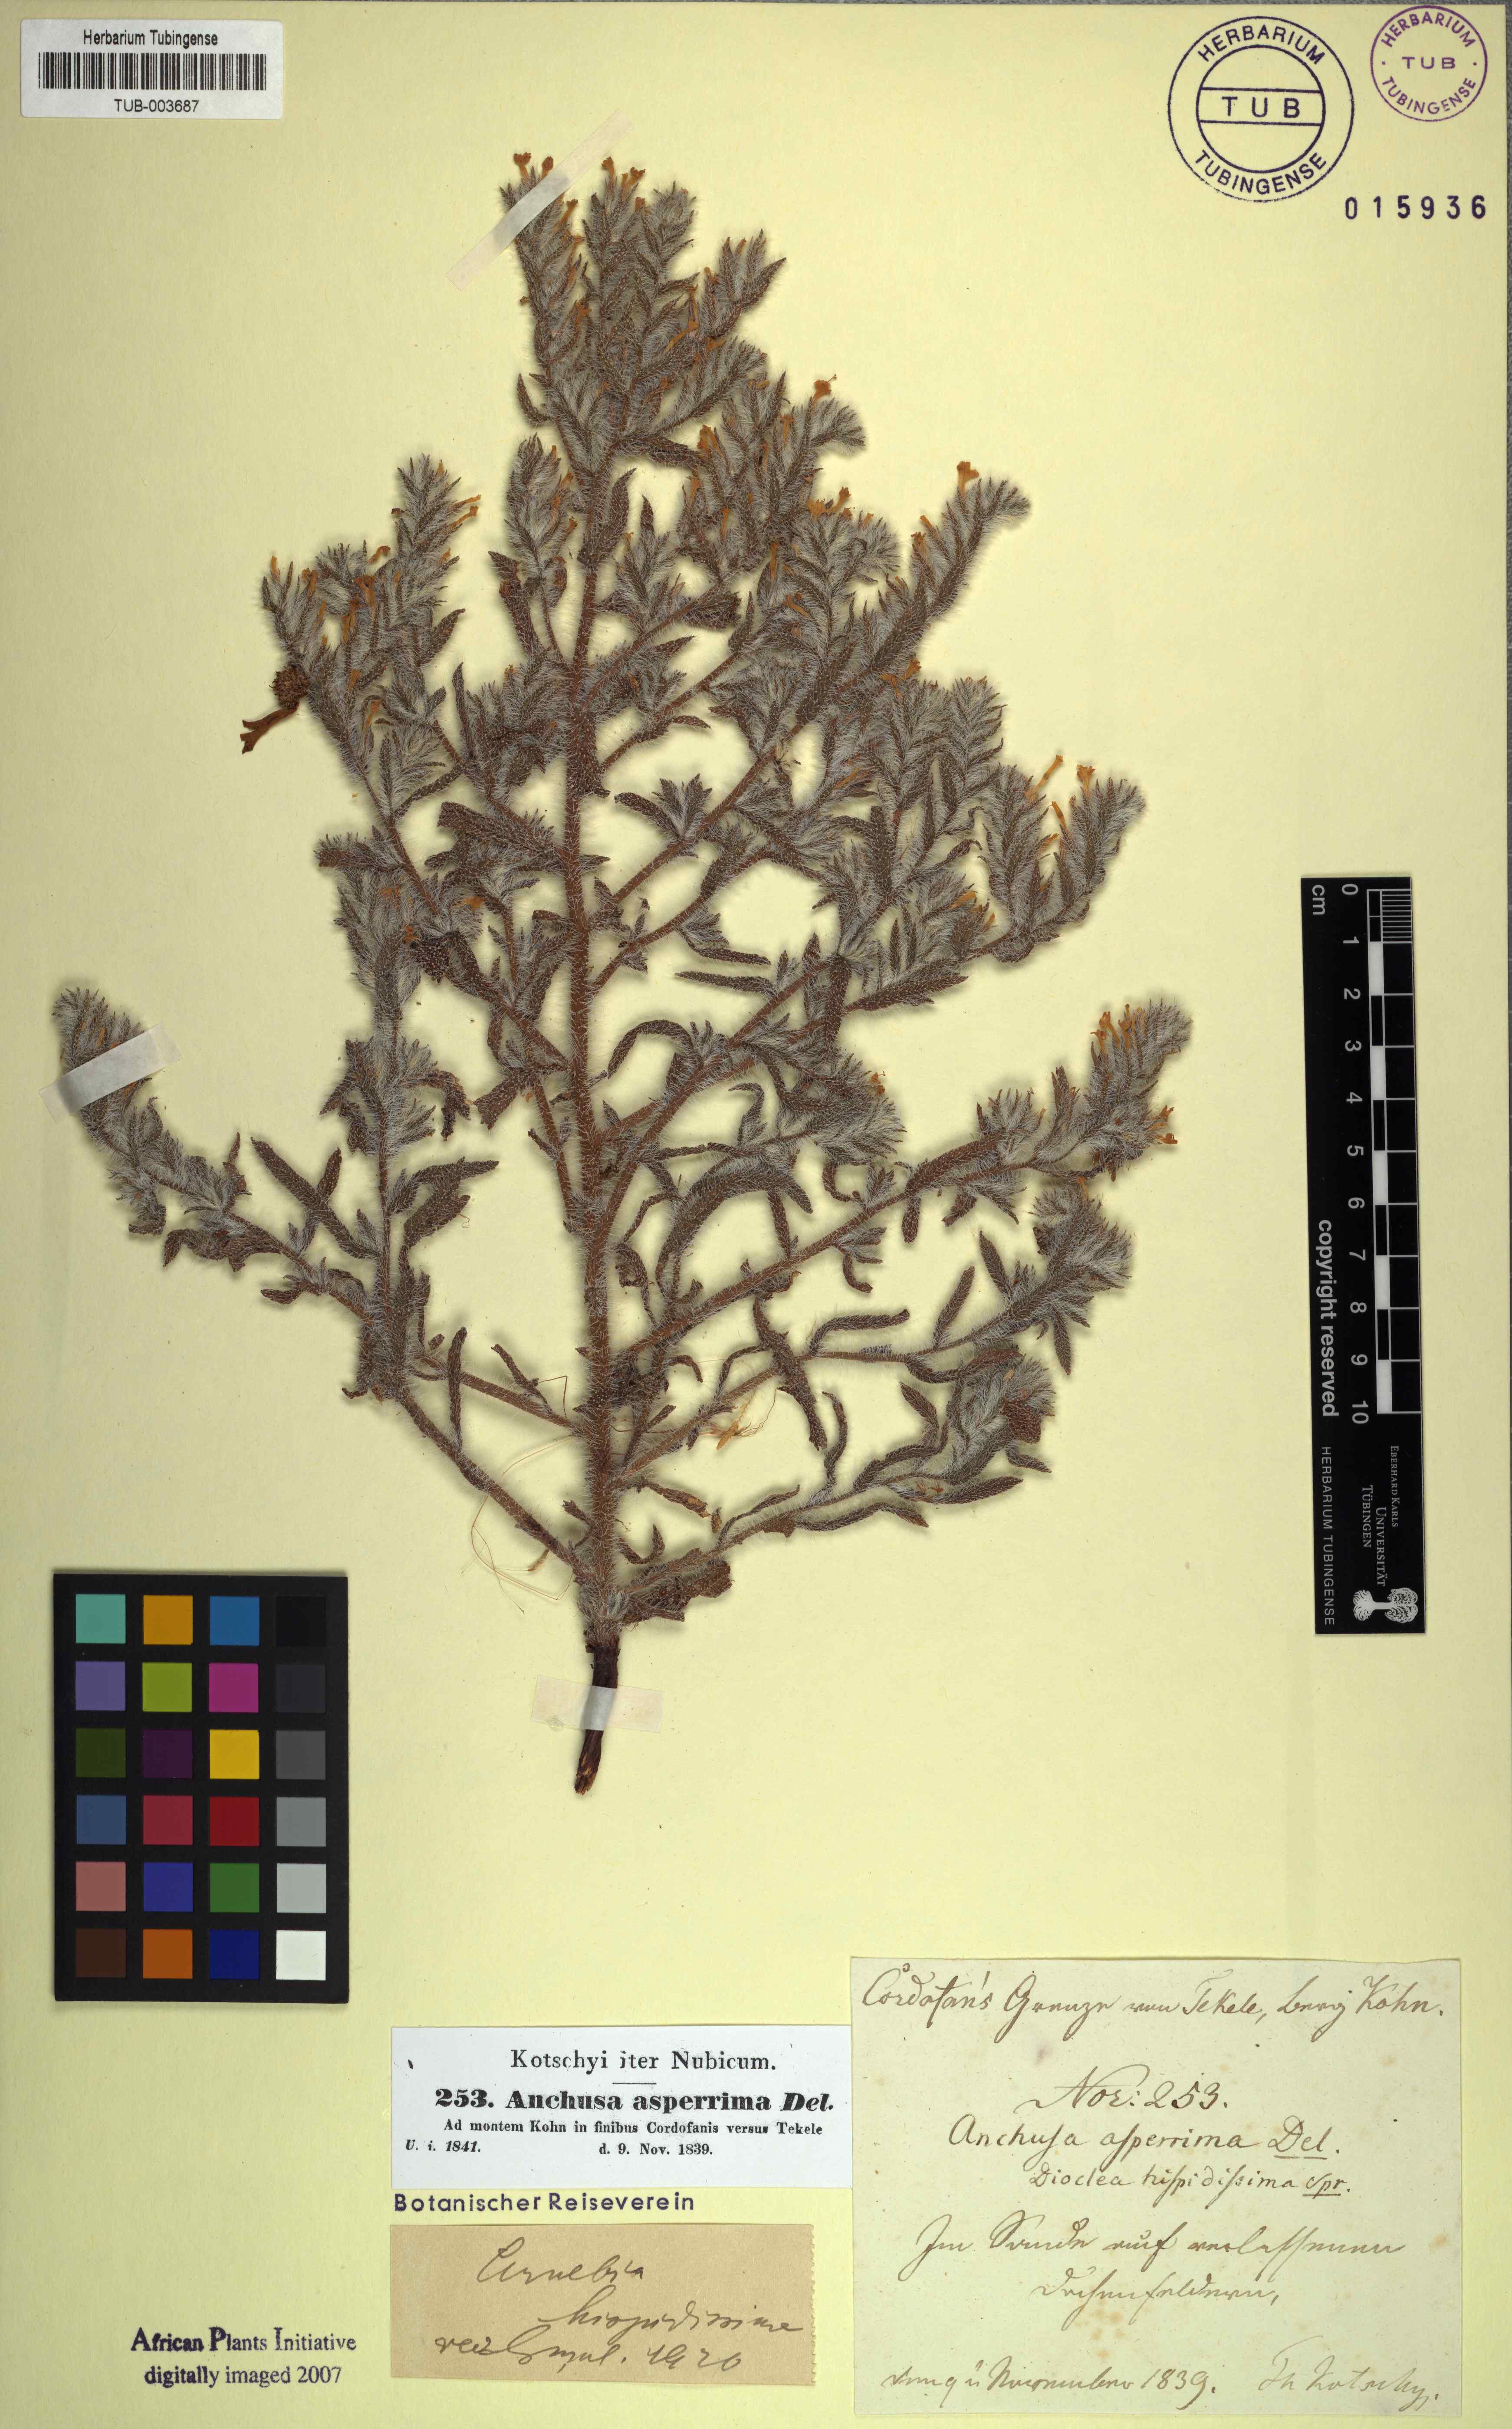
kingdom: Plantae
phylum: Tracheophyta
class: Magnoliopsida
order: Boraginales
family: Boraginaceae
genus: Arnebia
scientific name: Arnebia hispidissima
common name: Arabian-primrose
